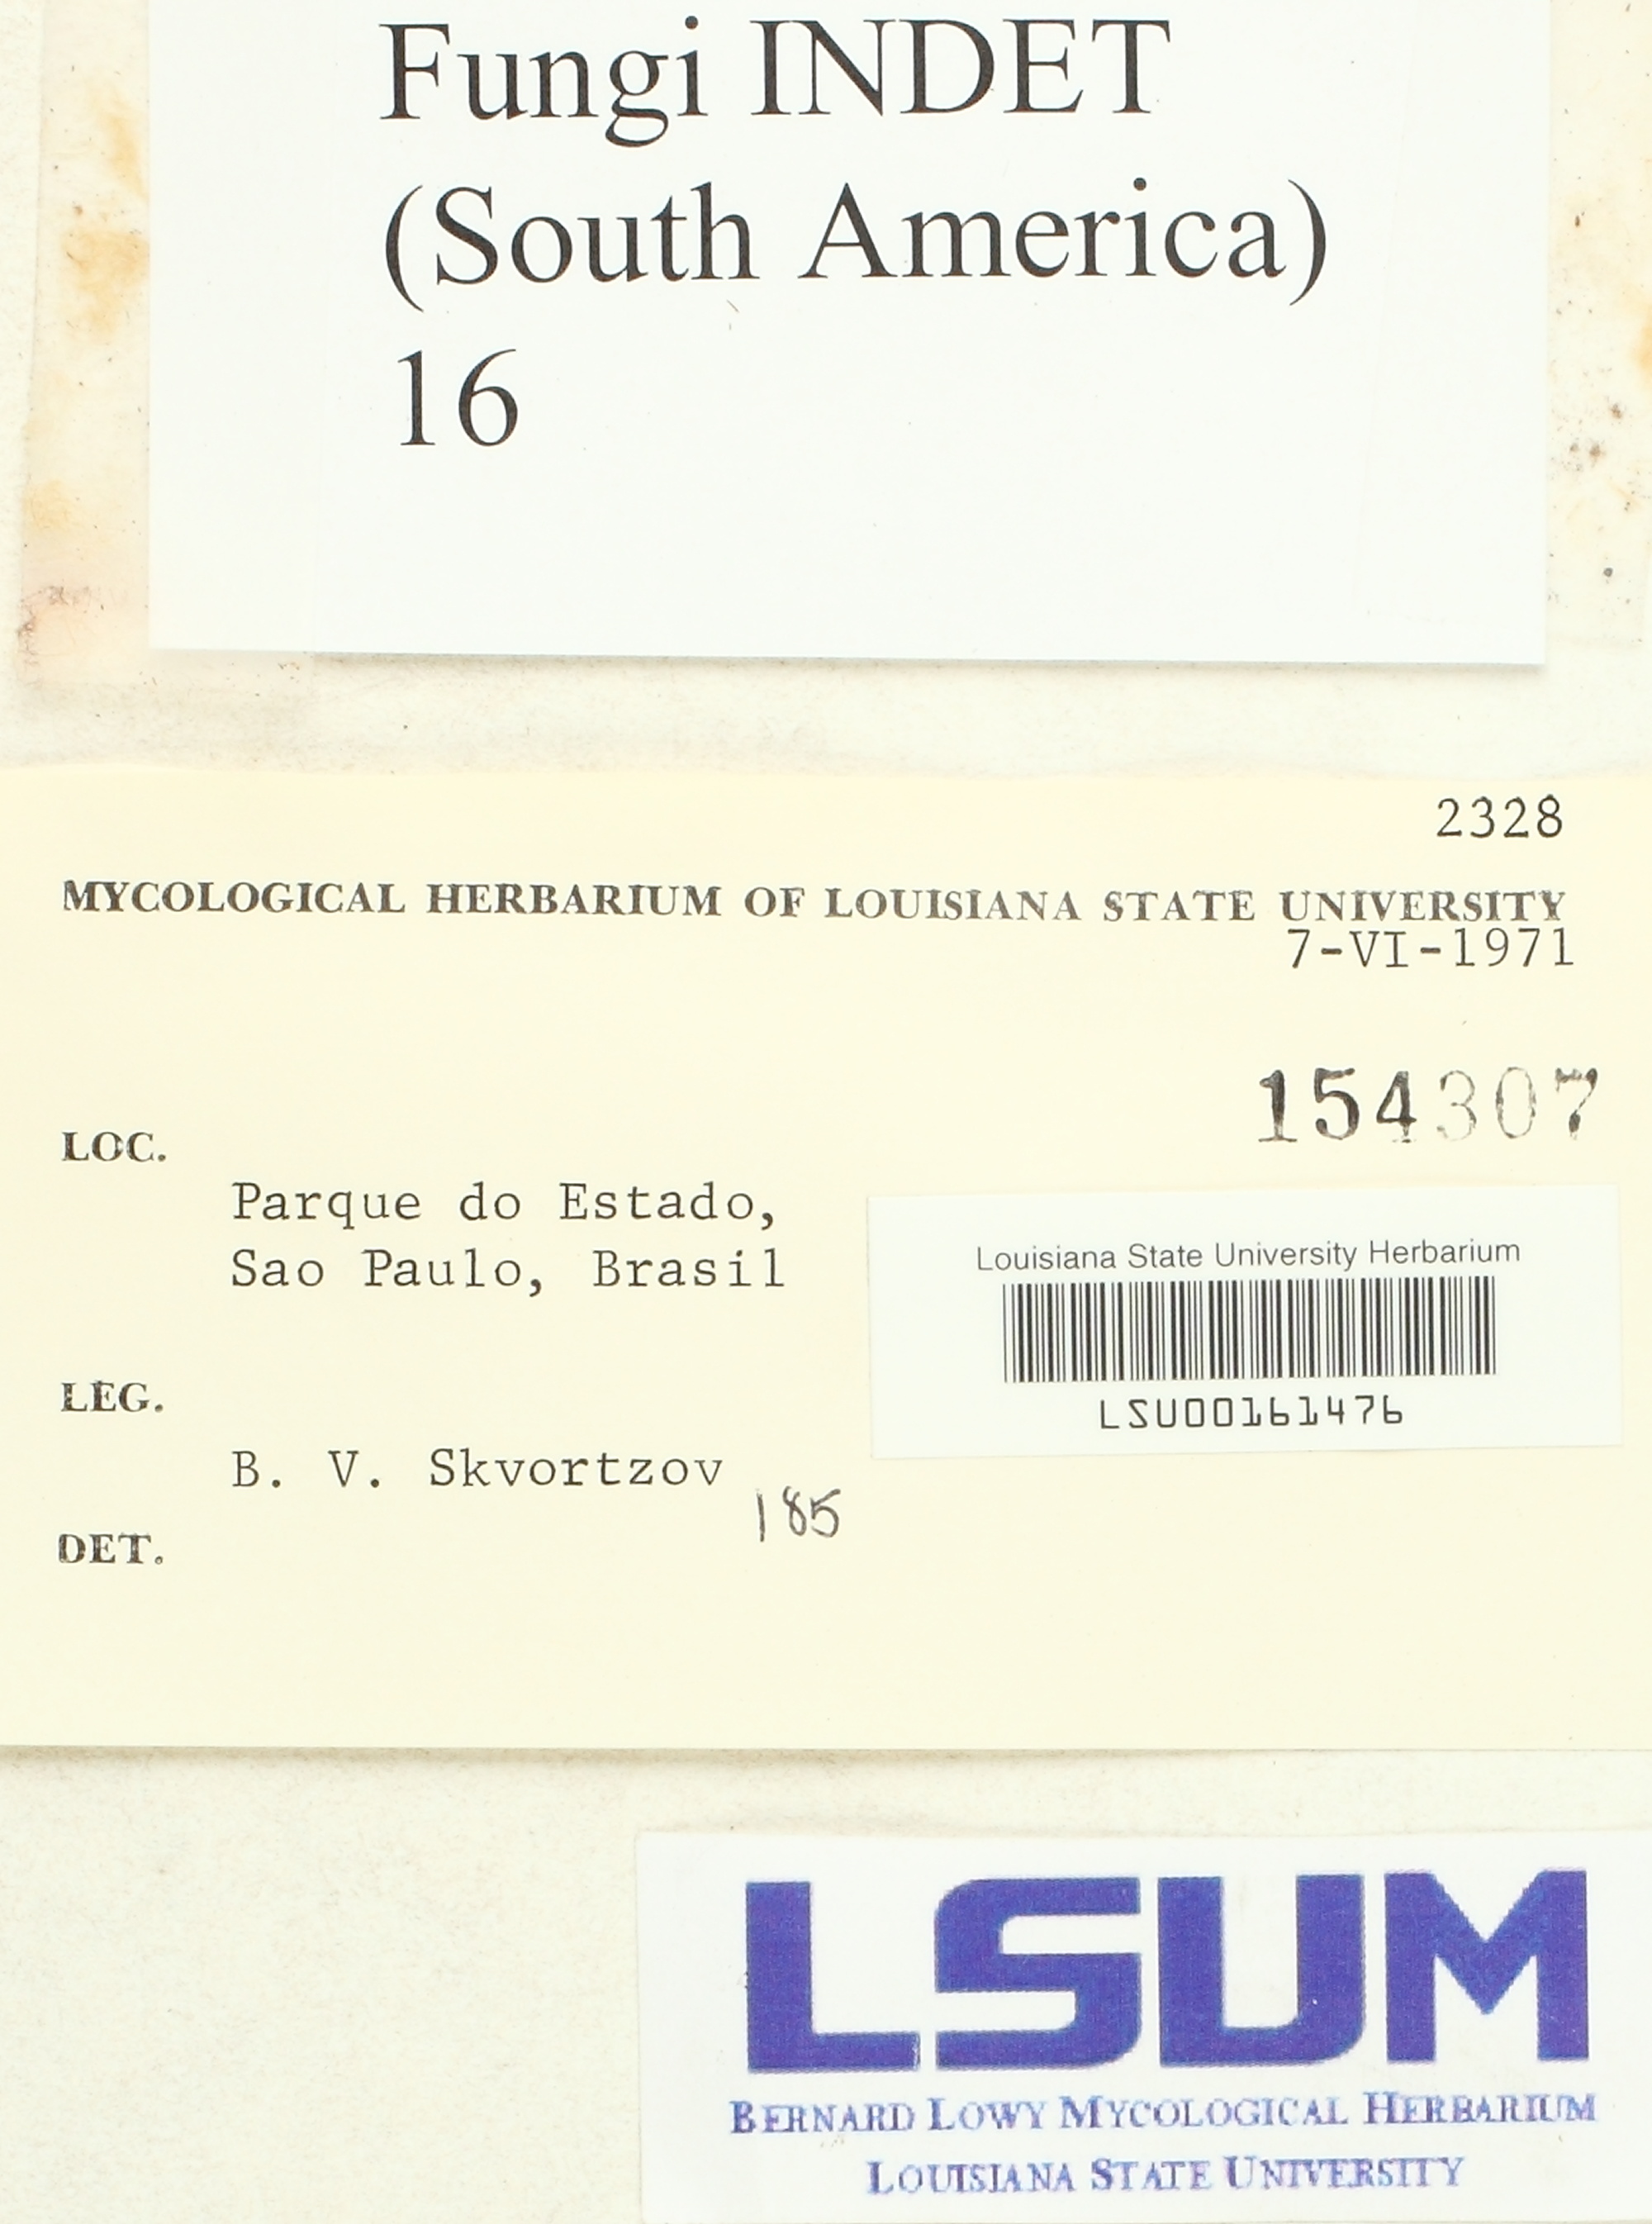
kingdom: Fungi
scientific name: Fungi
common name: Fungi
